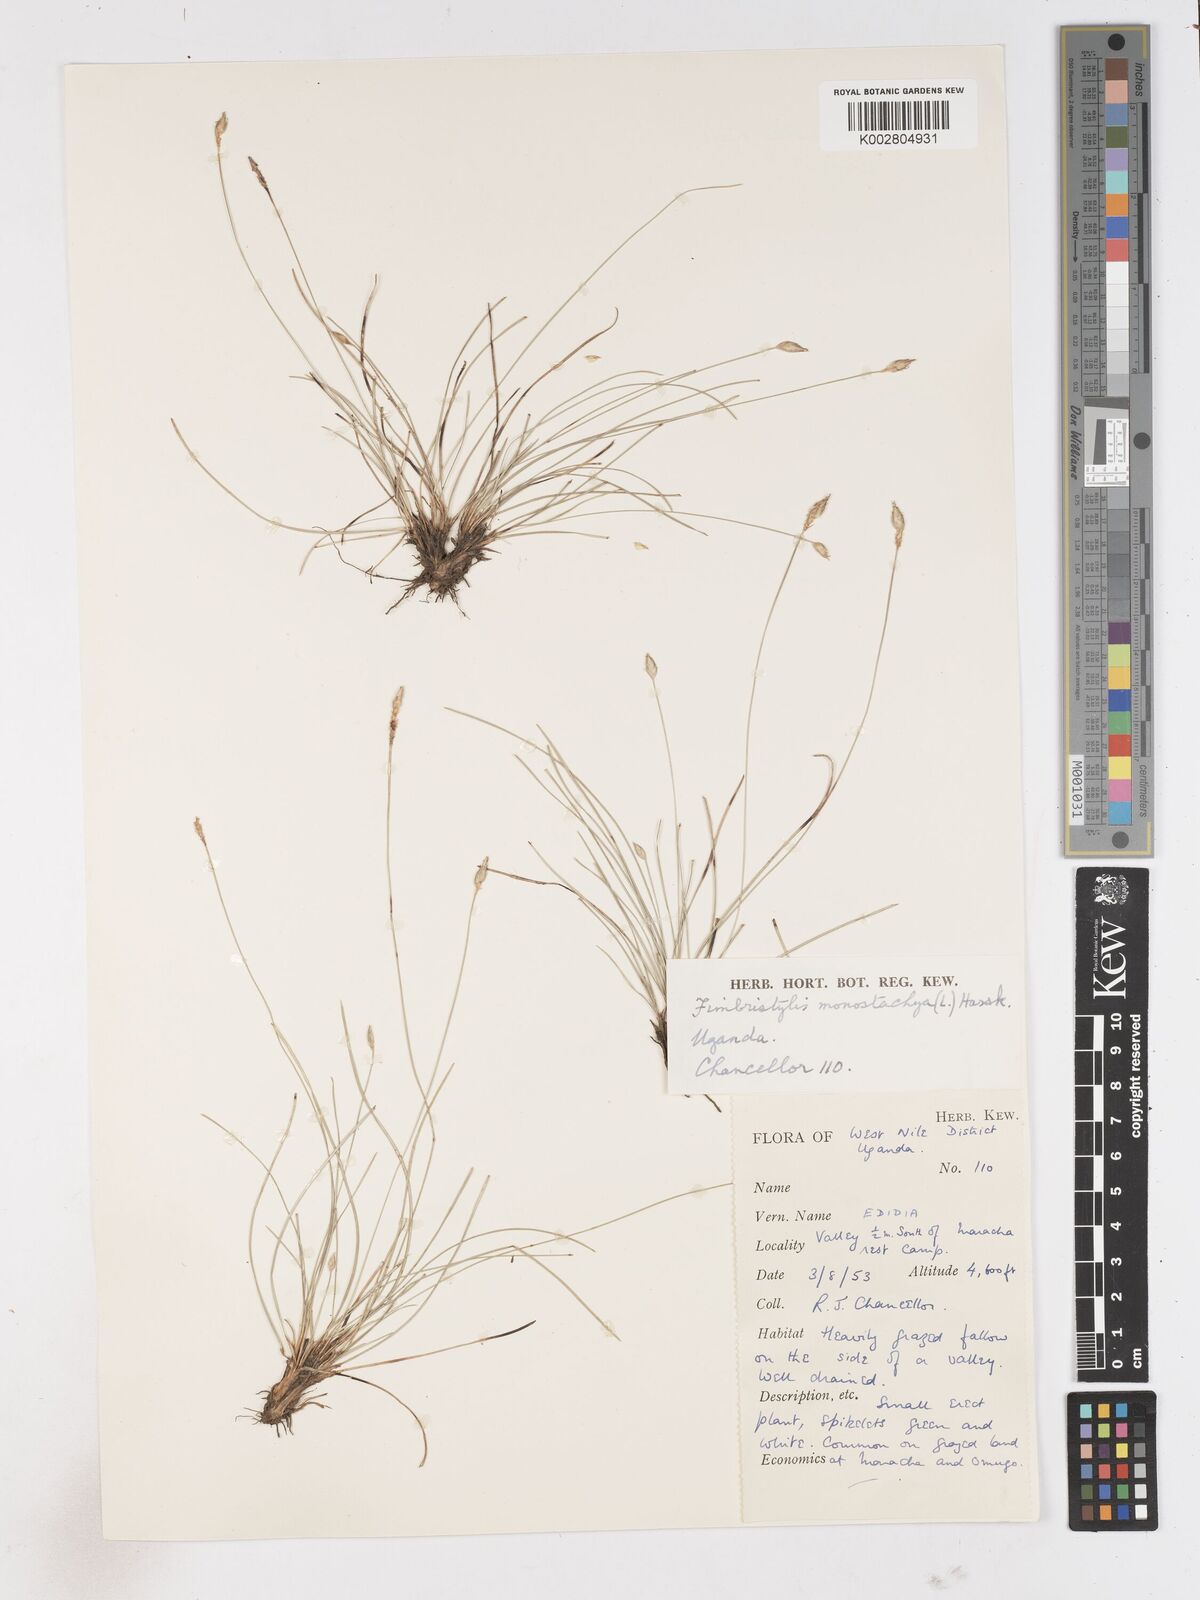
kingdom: Plantae
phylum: Tracheophyta
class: Liliopsida
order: Poales
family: Cyperaceae
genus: Abildgaardia
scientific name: Abildgaardia ovata
